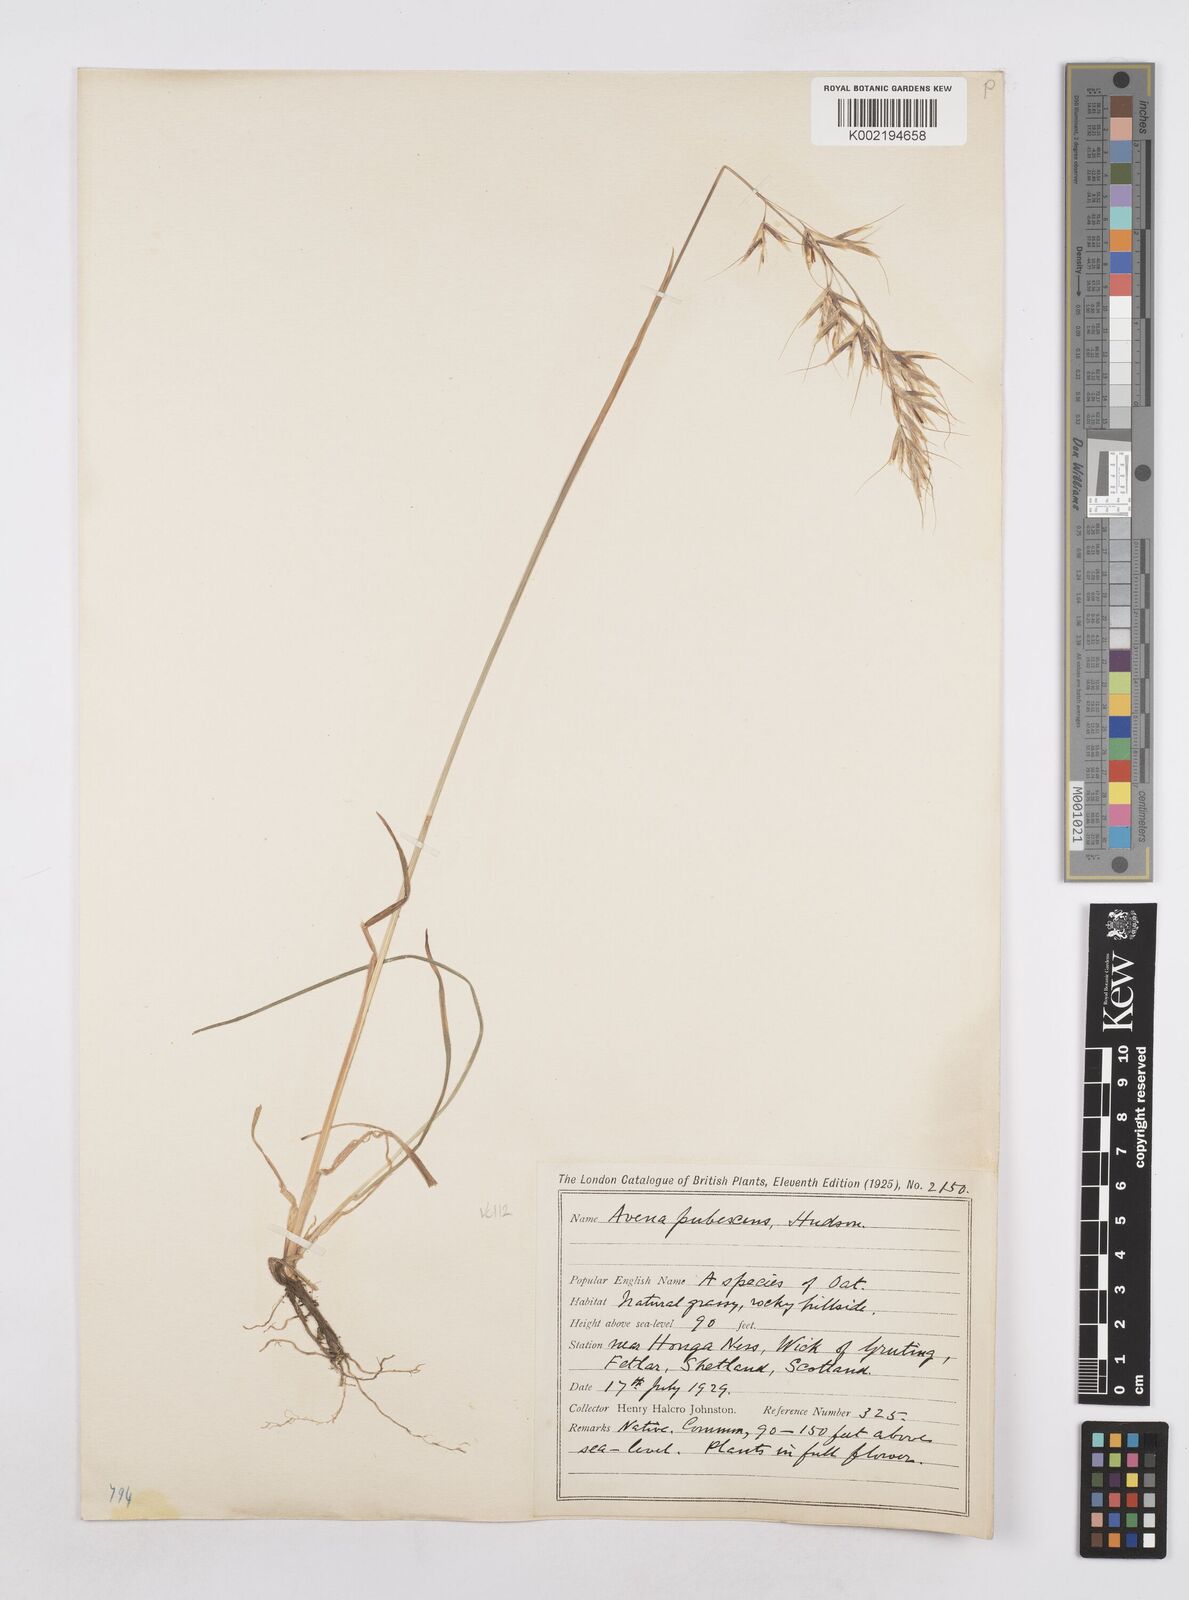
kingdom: Plantae
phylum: Tracheophyta
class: Liliopsida
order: Poales
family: Poaceae
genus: Avenula
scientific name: Avenula pubescens
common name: Downy alpine oatgrass
